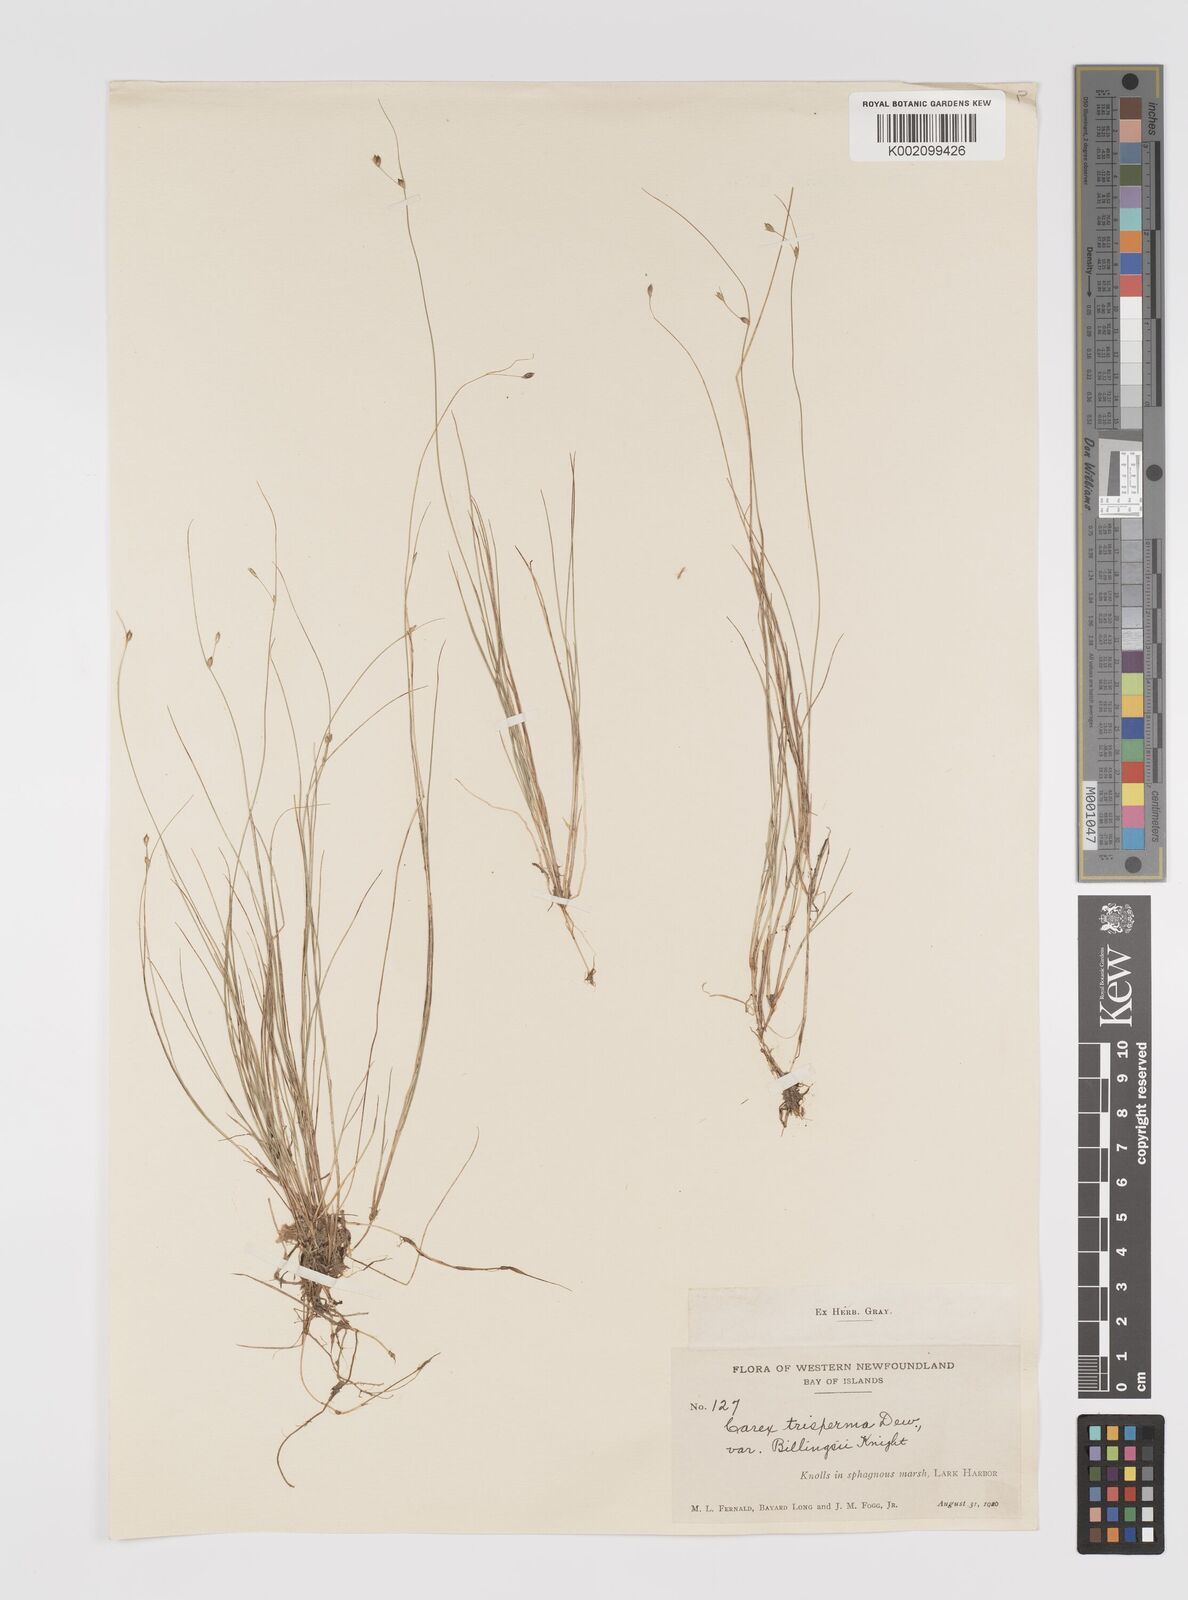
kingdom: Plantae
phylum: Tracheophyta
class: Liliopsida
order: Poales
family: Cyperaceae
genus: Carex
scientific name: Carex trisperma
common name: Three-seeded sedge
